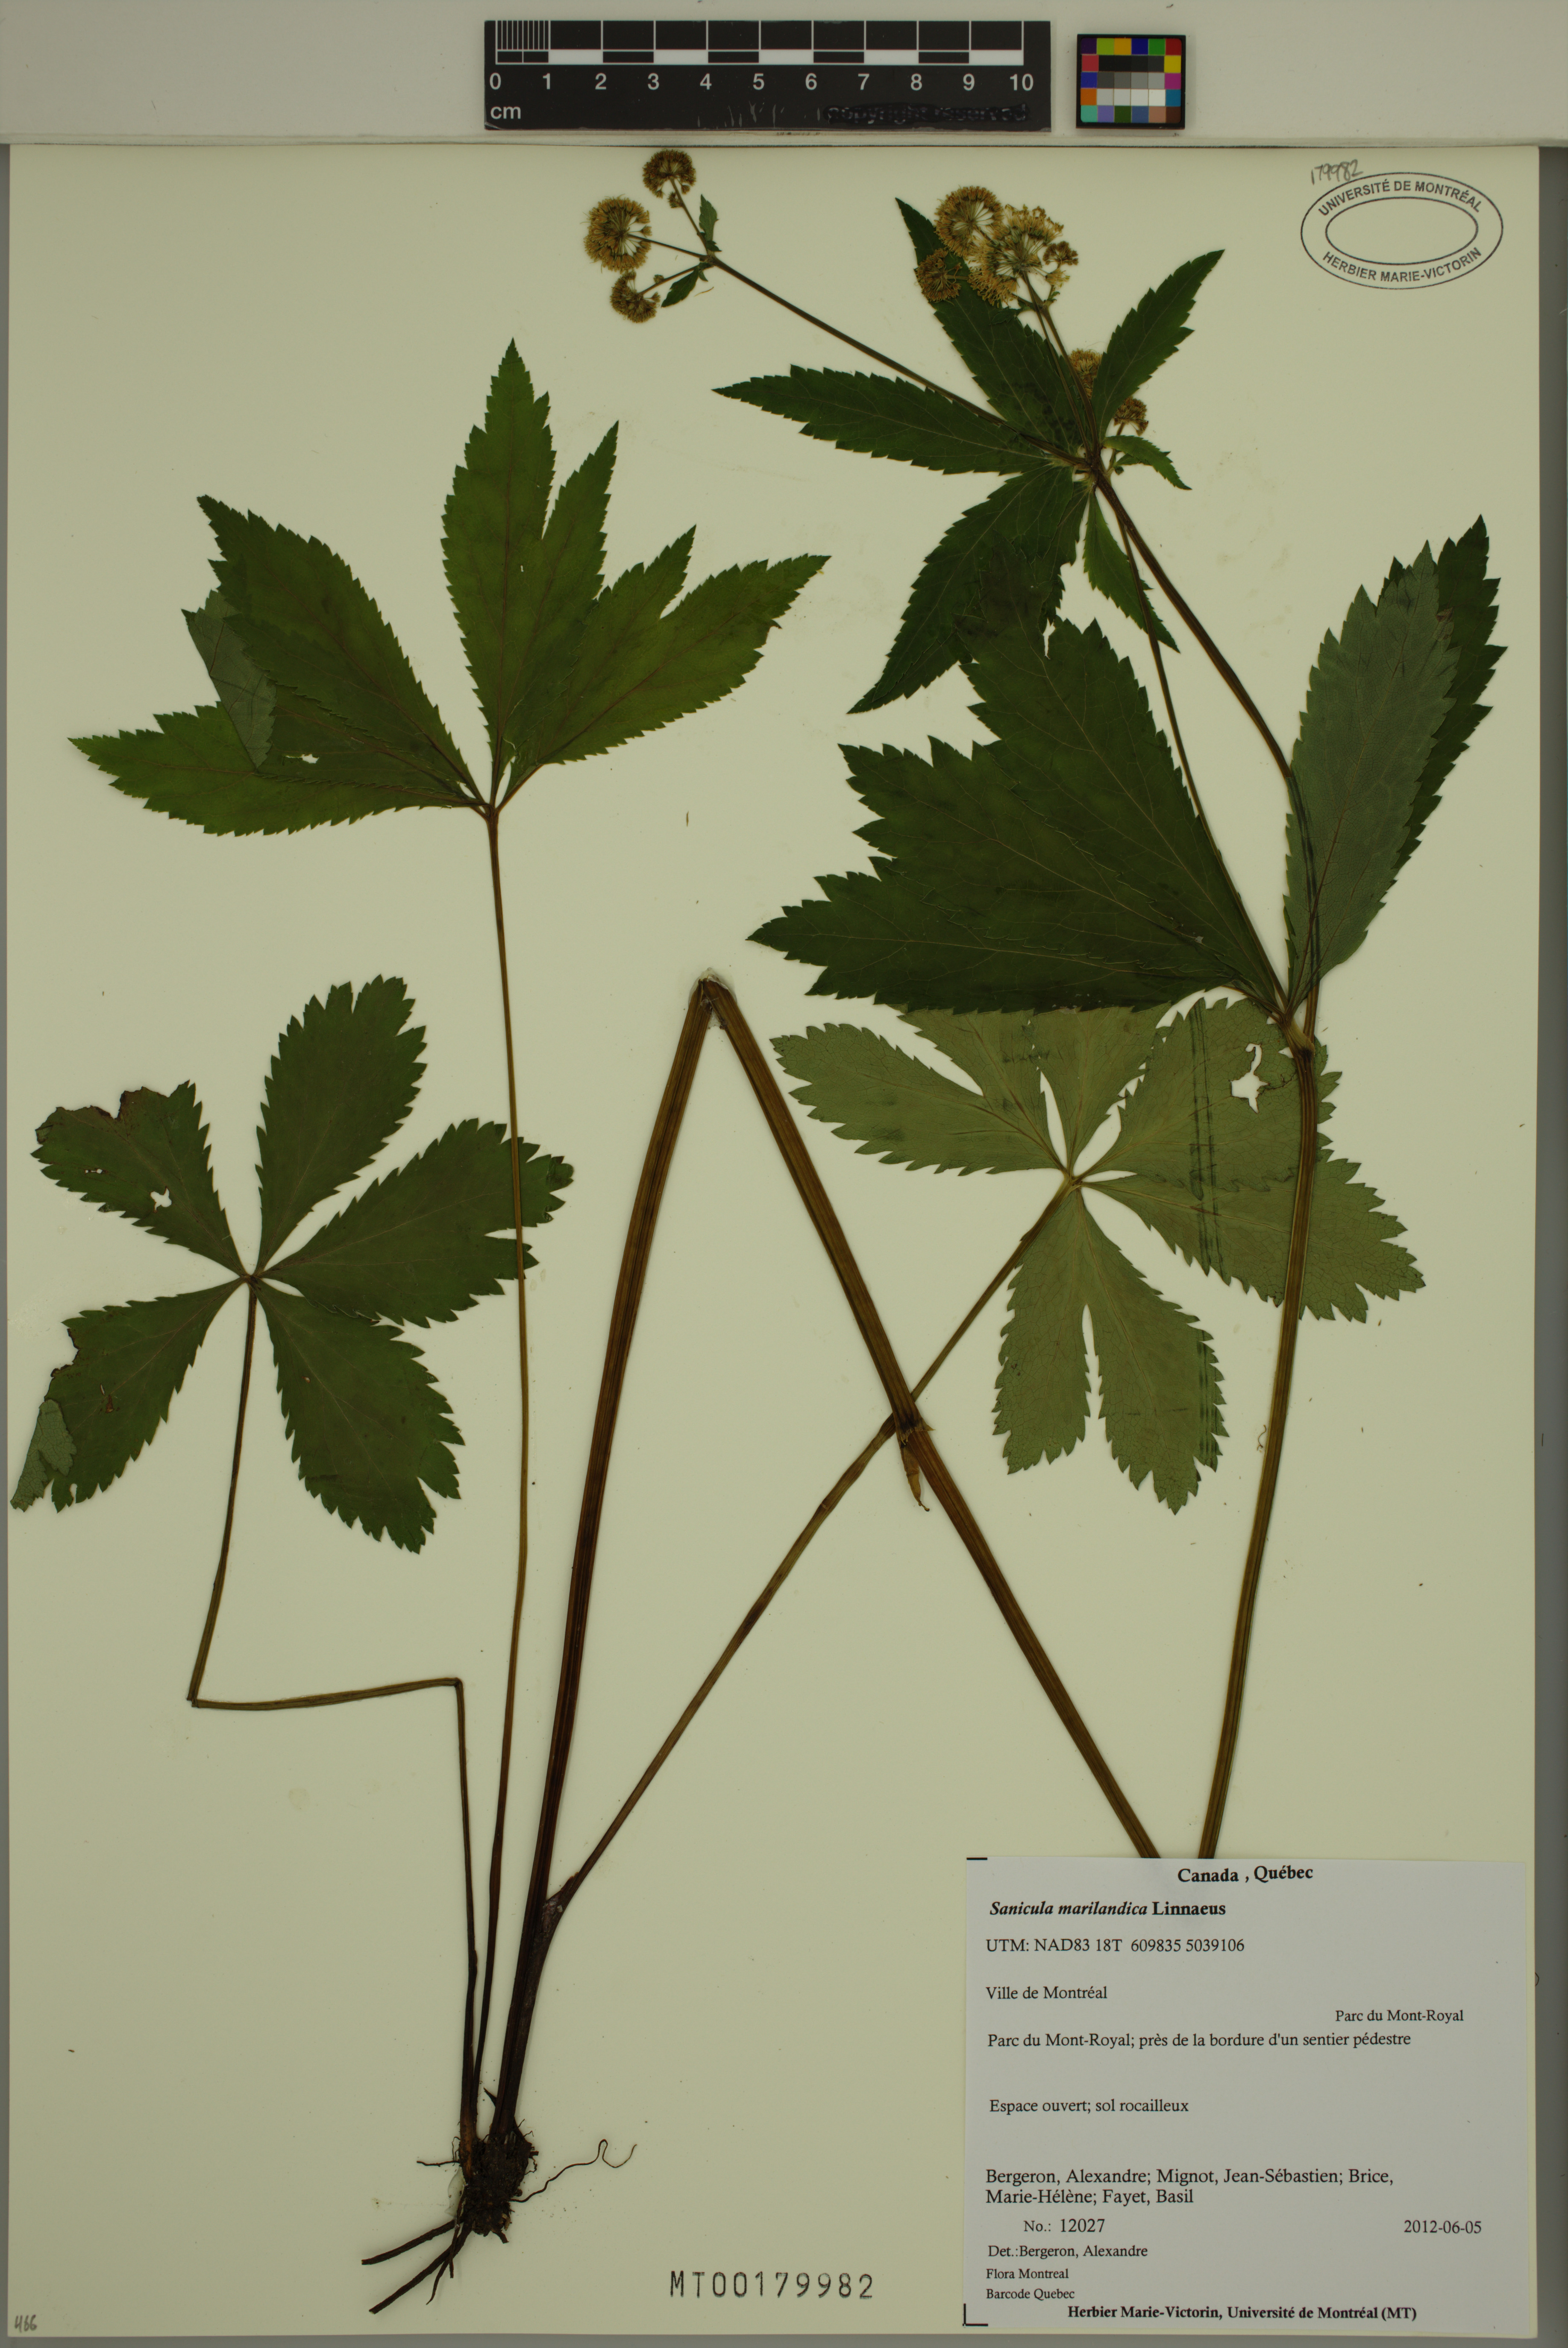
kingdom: Plantae
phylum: Tracheophyta
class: Magnoliopsida
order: Apiales
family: Apiaceae
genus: Sanicula
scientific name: Sanicula marilandica
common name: Black snakeroot
